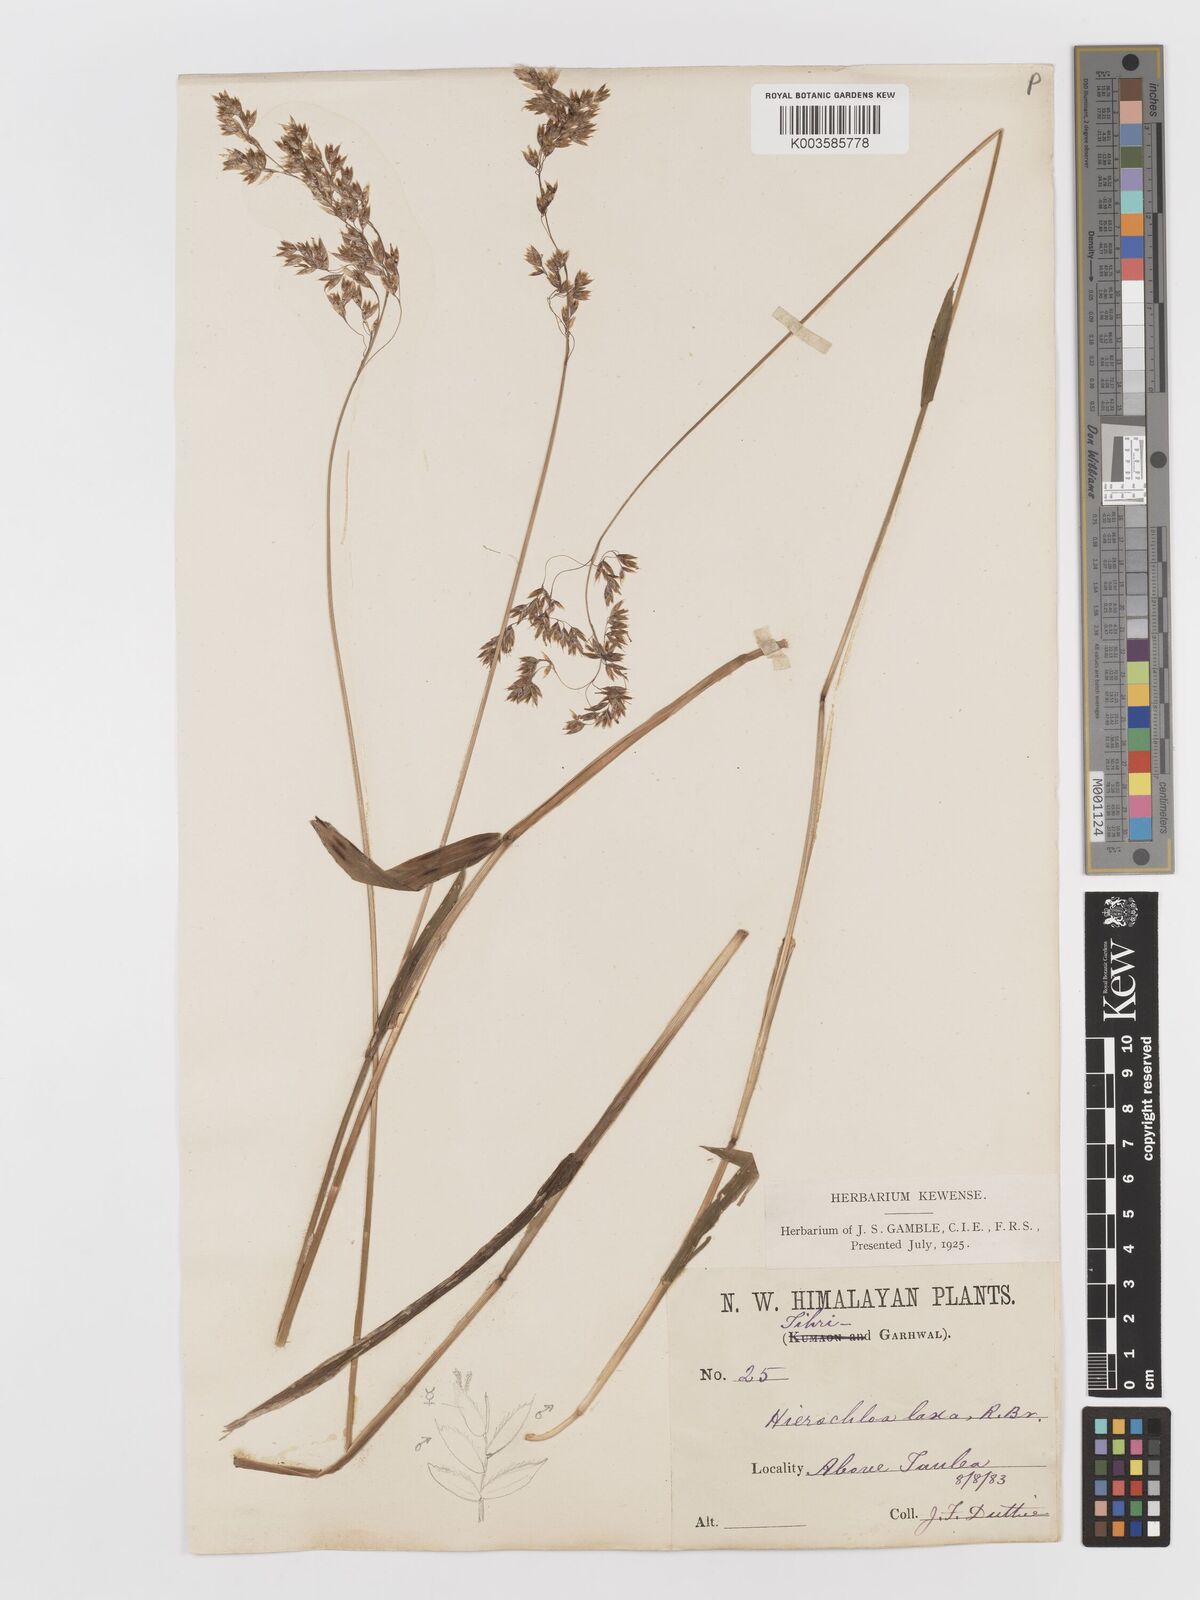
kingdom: Plantae
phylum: Tracheophyta
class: Liliopsida
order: Poales
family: Poaceae
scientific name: Poaceae
